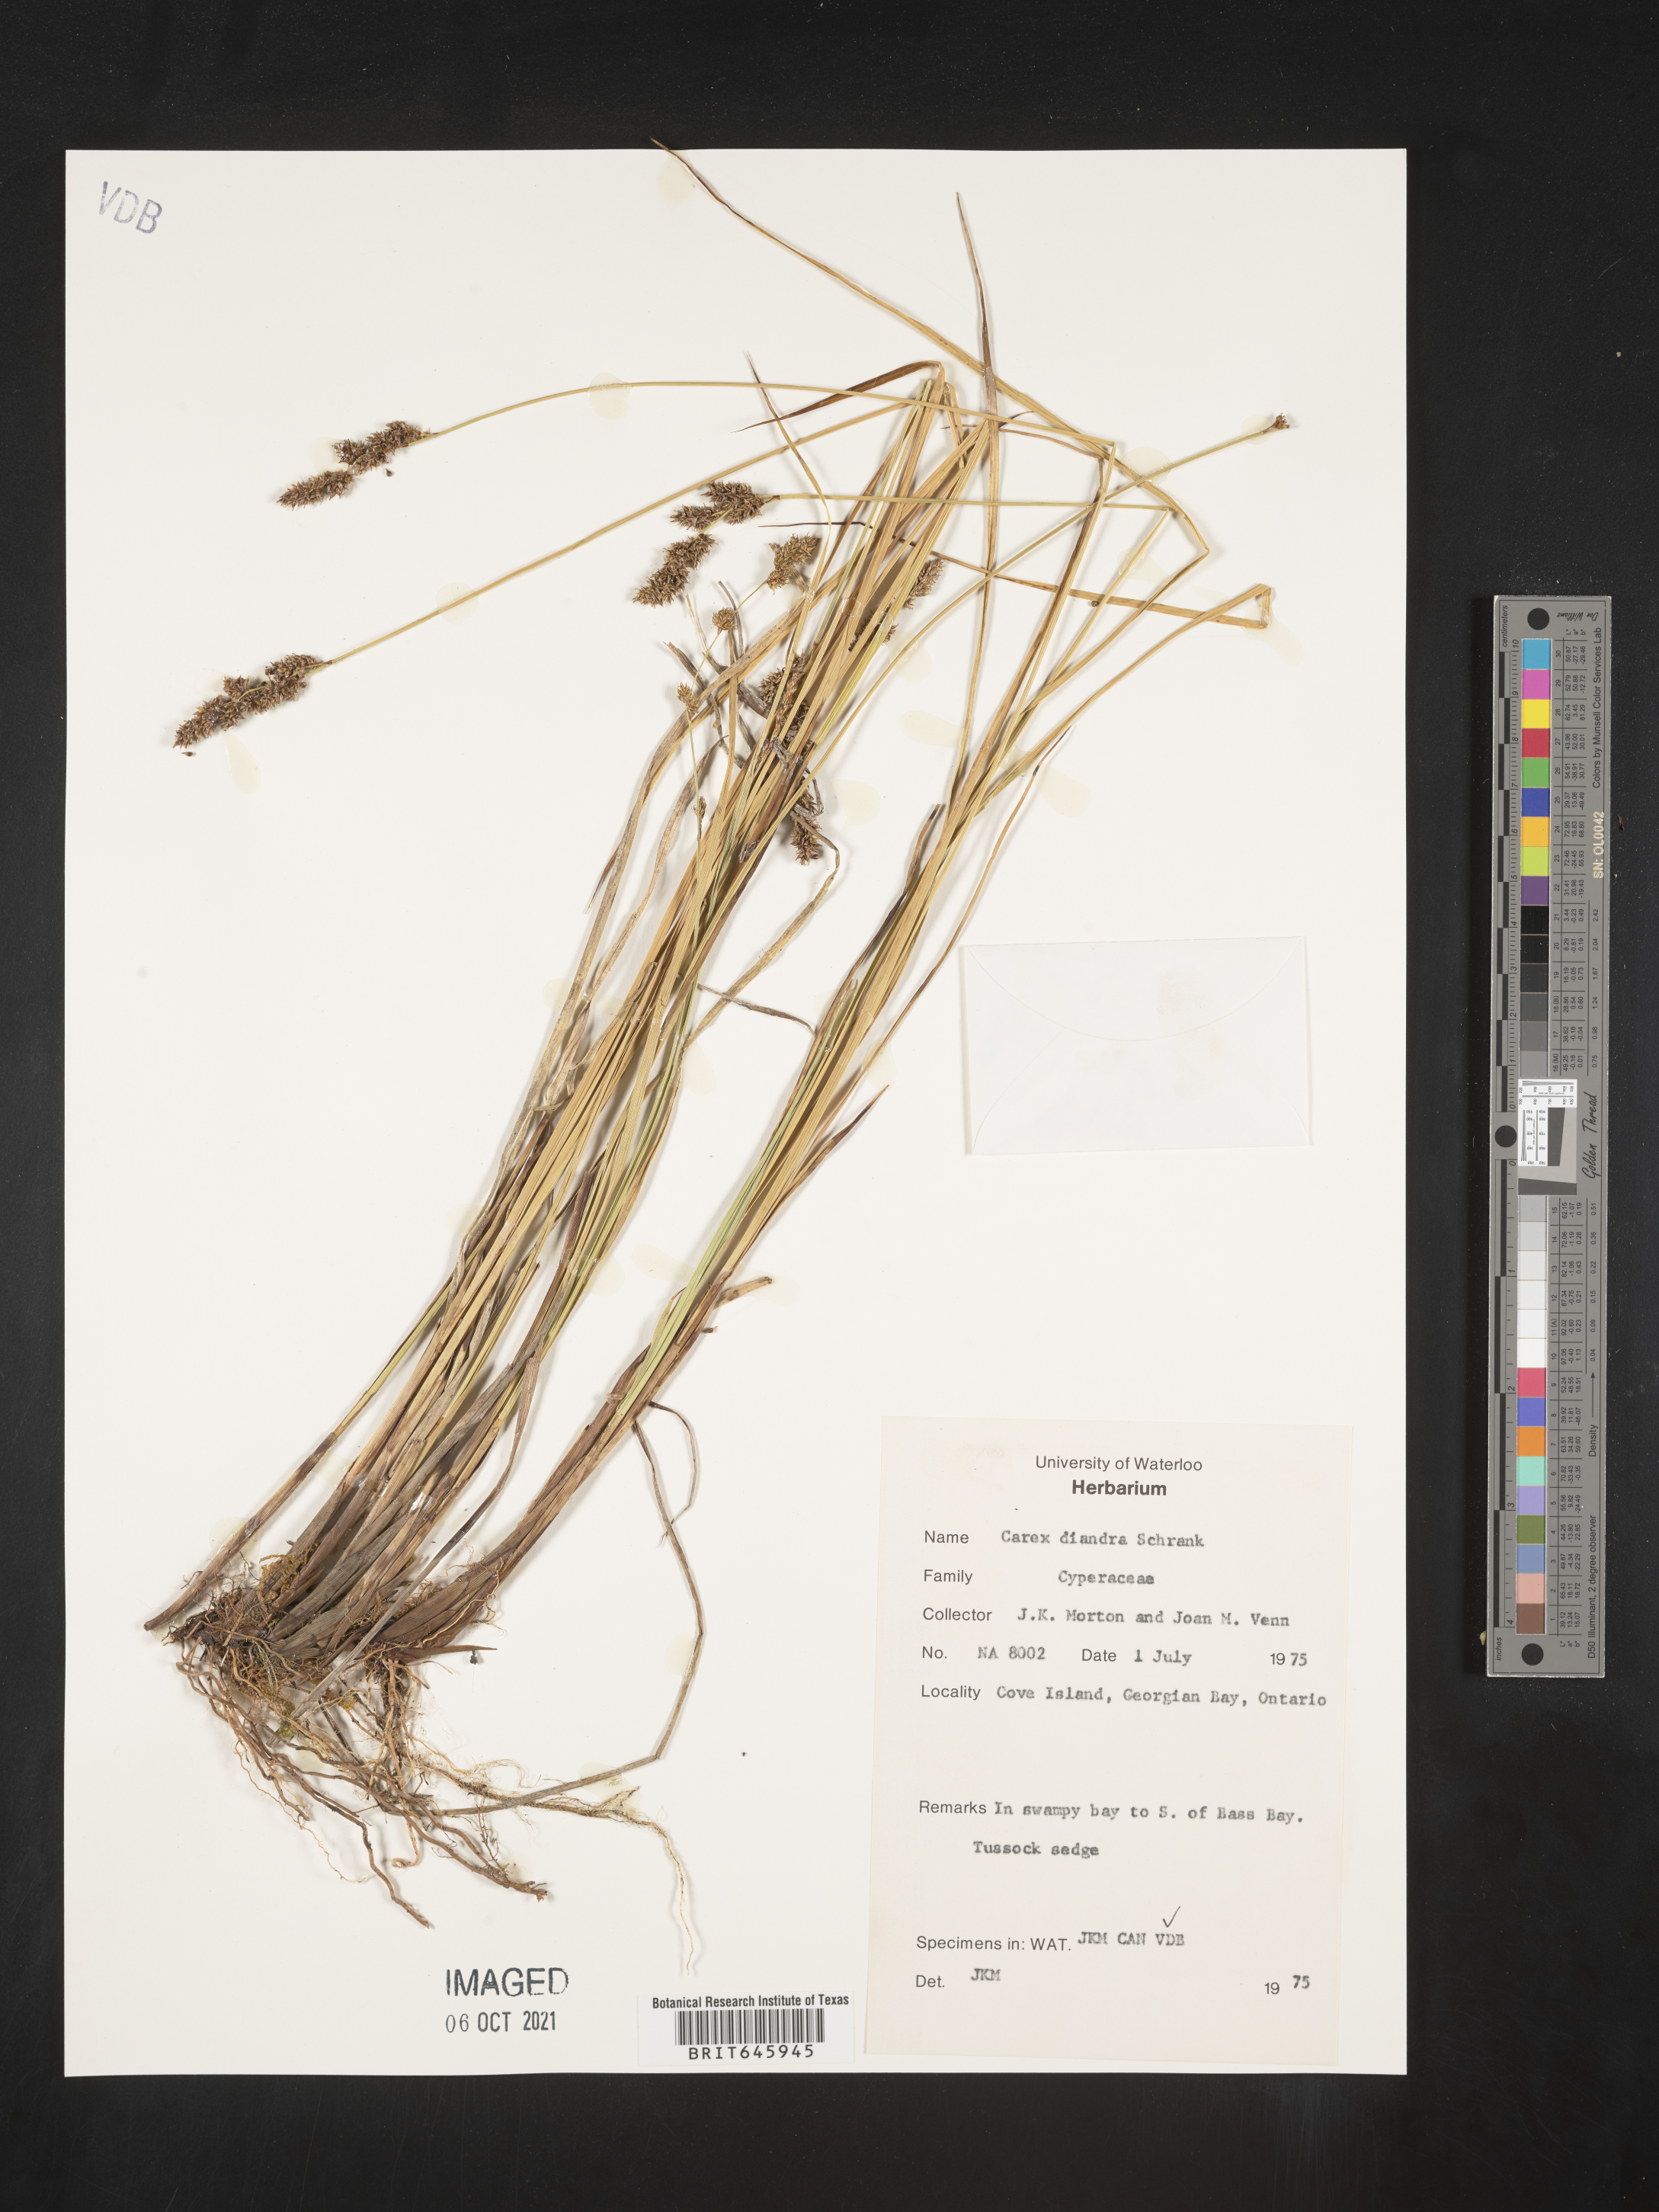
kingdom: Plantae
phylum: Tracheophyta
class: Liliopsida
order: Poales
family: Cyperaceae
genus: Carex
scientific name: Carex diandra
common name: Lesser tussock-sedge
